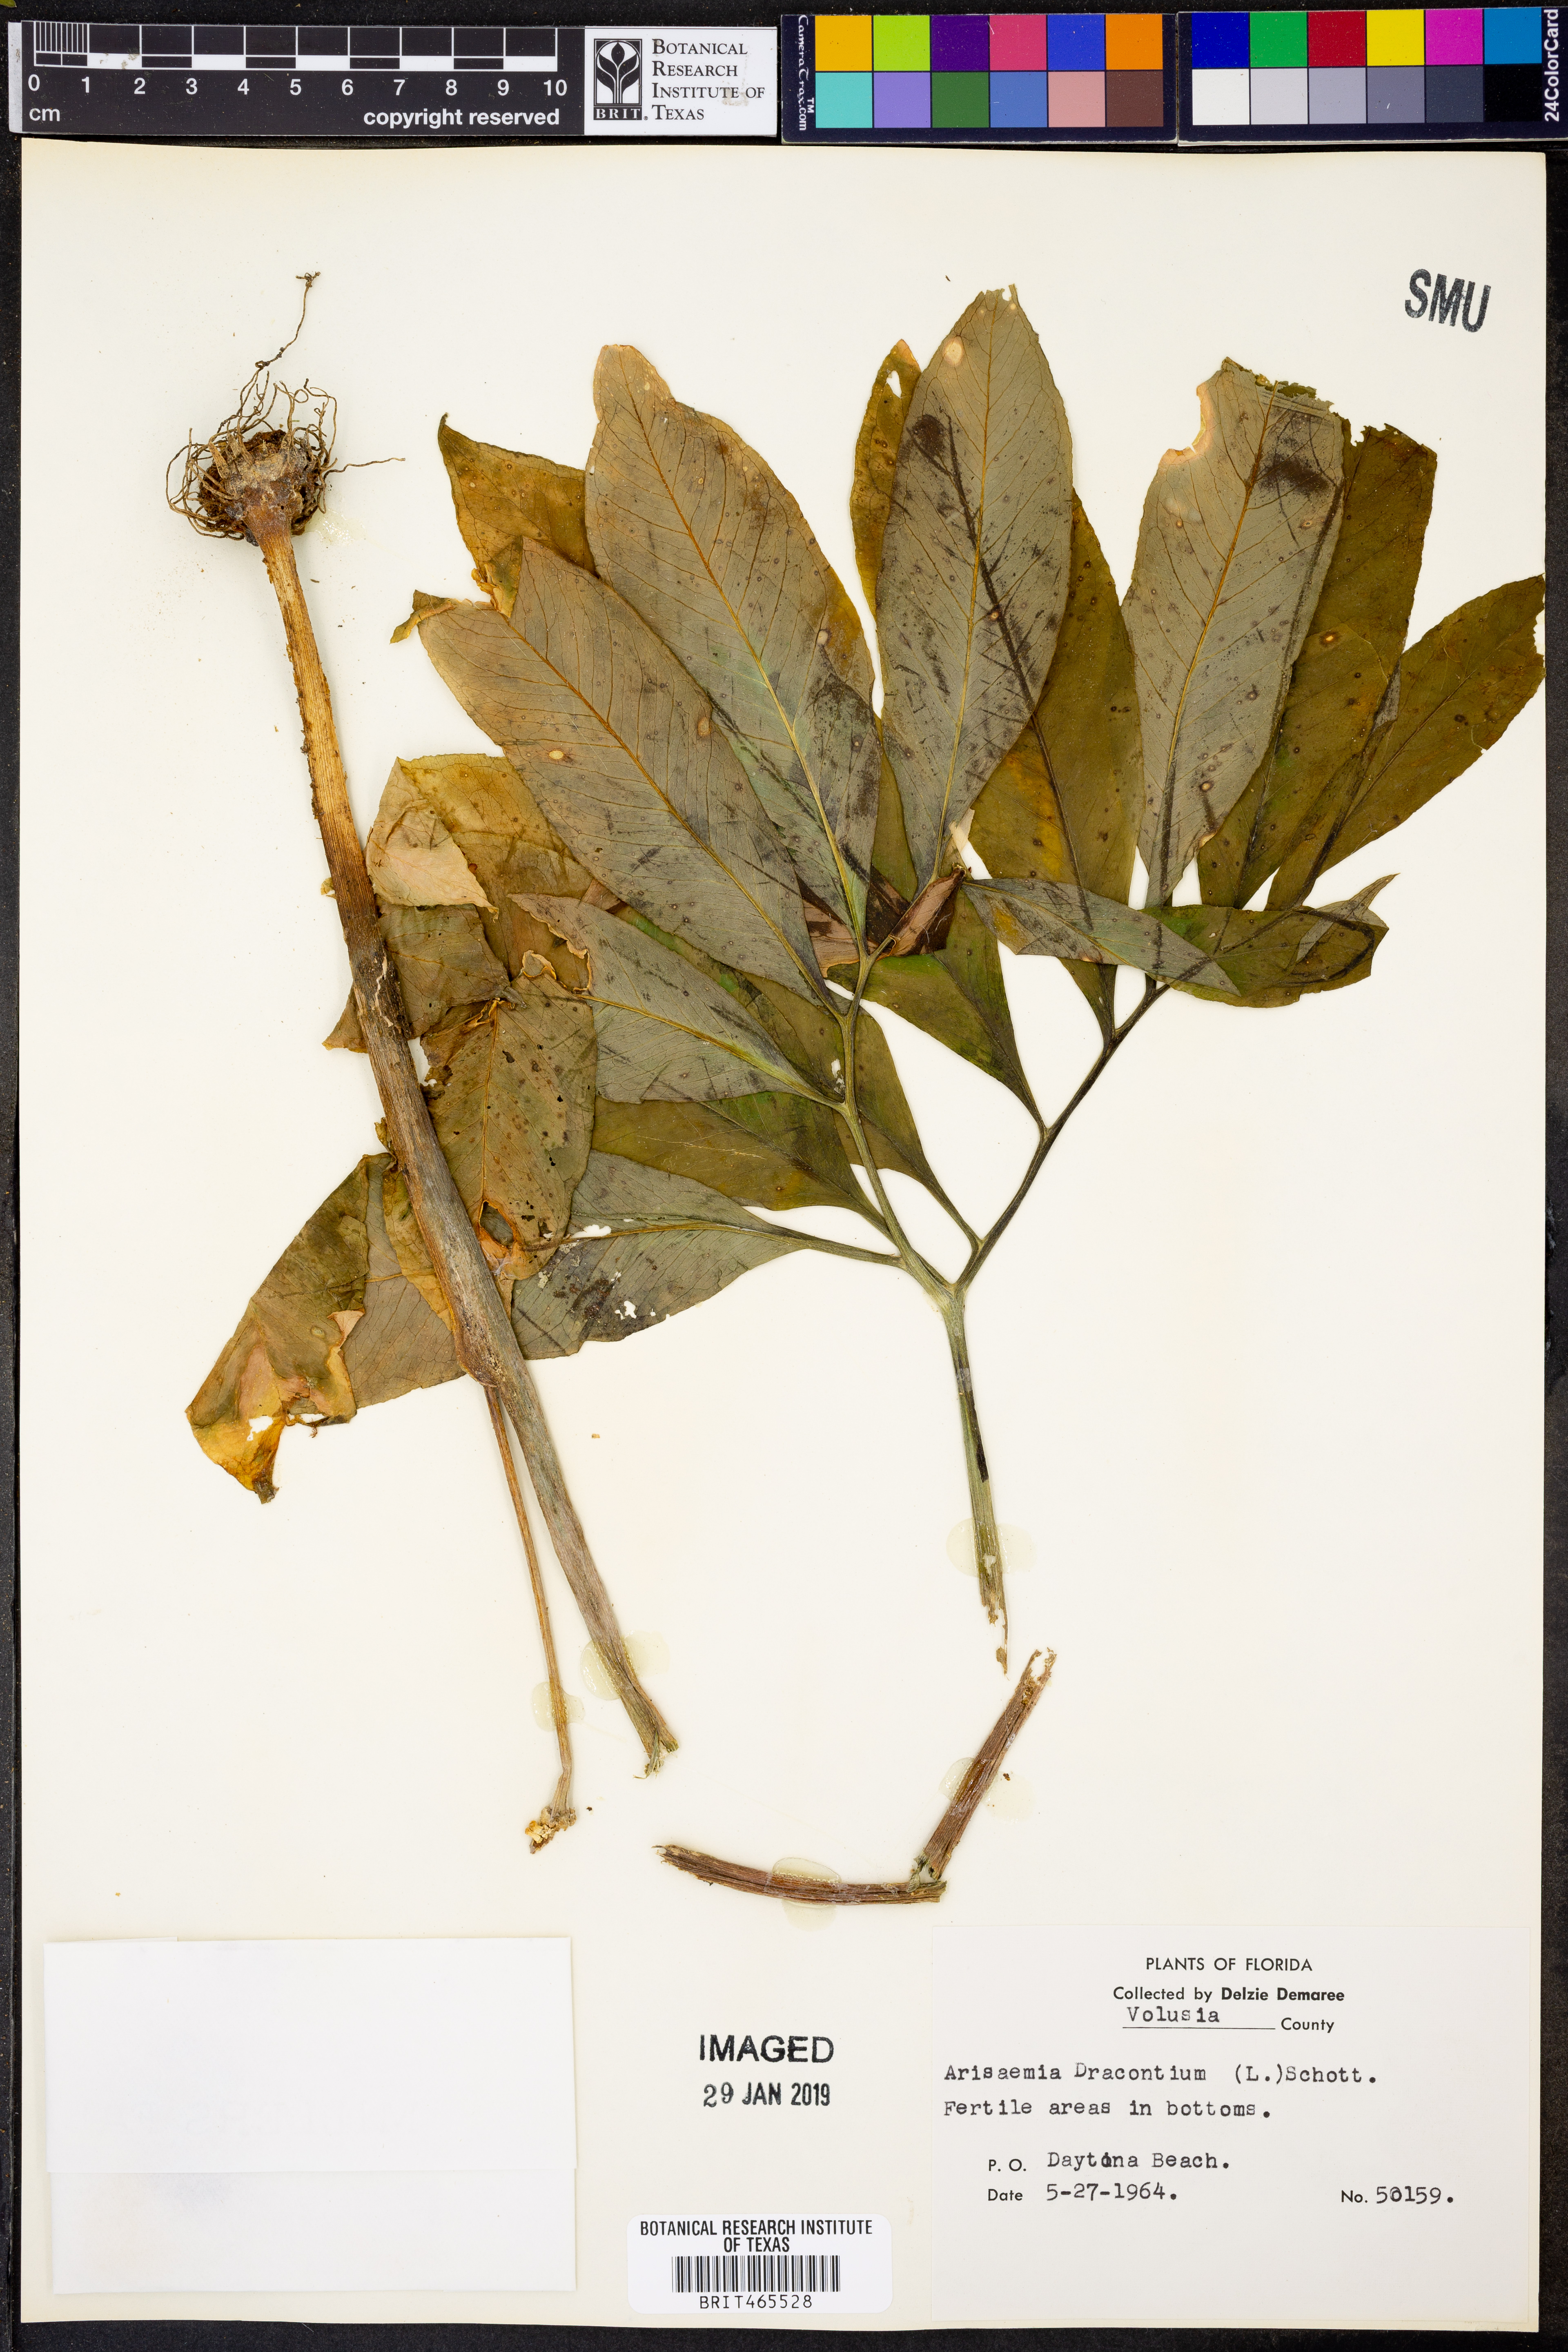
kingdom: Plantae
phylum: Tracheophyta
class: Liliopsida
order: Alismatales
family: Araceae
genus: Arisaema
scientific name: Arisaema dracontium
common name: Dragon-arum
